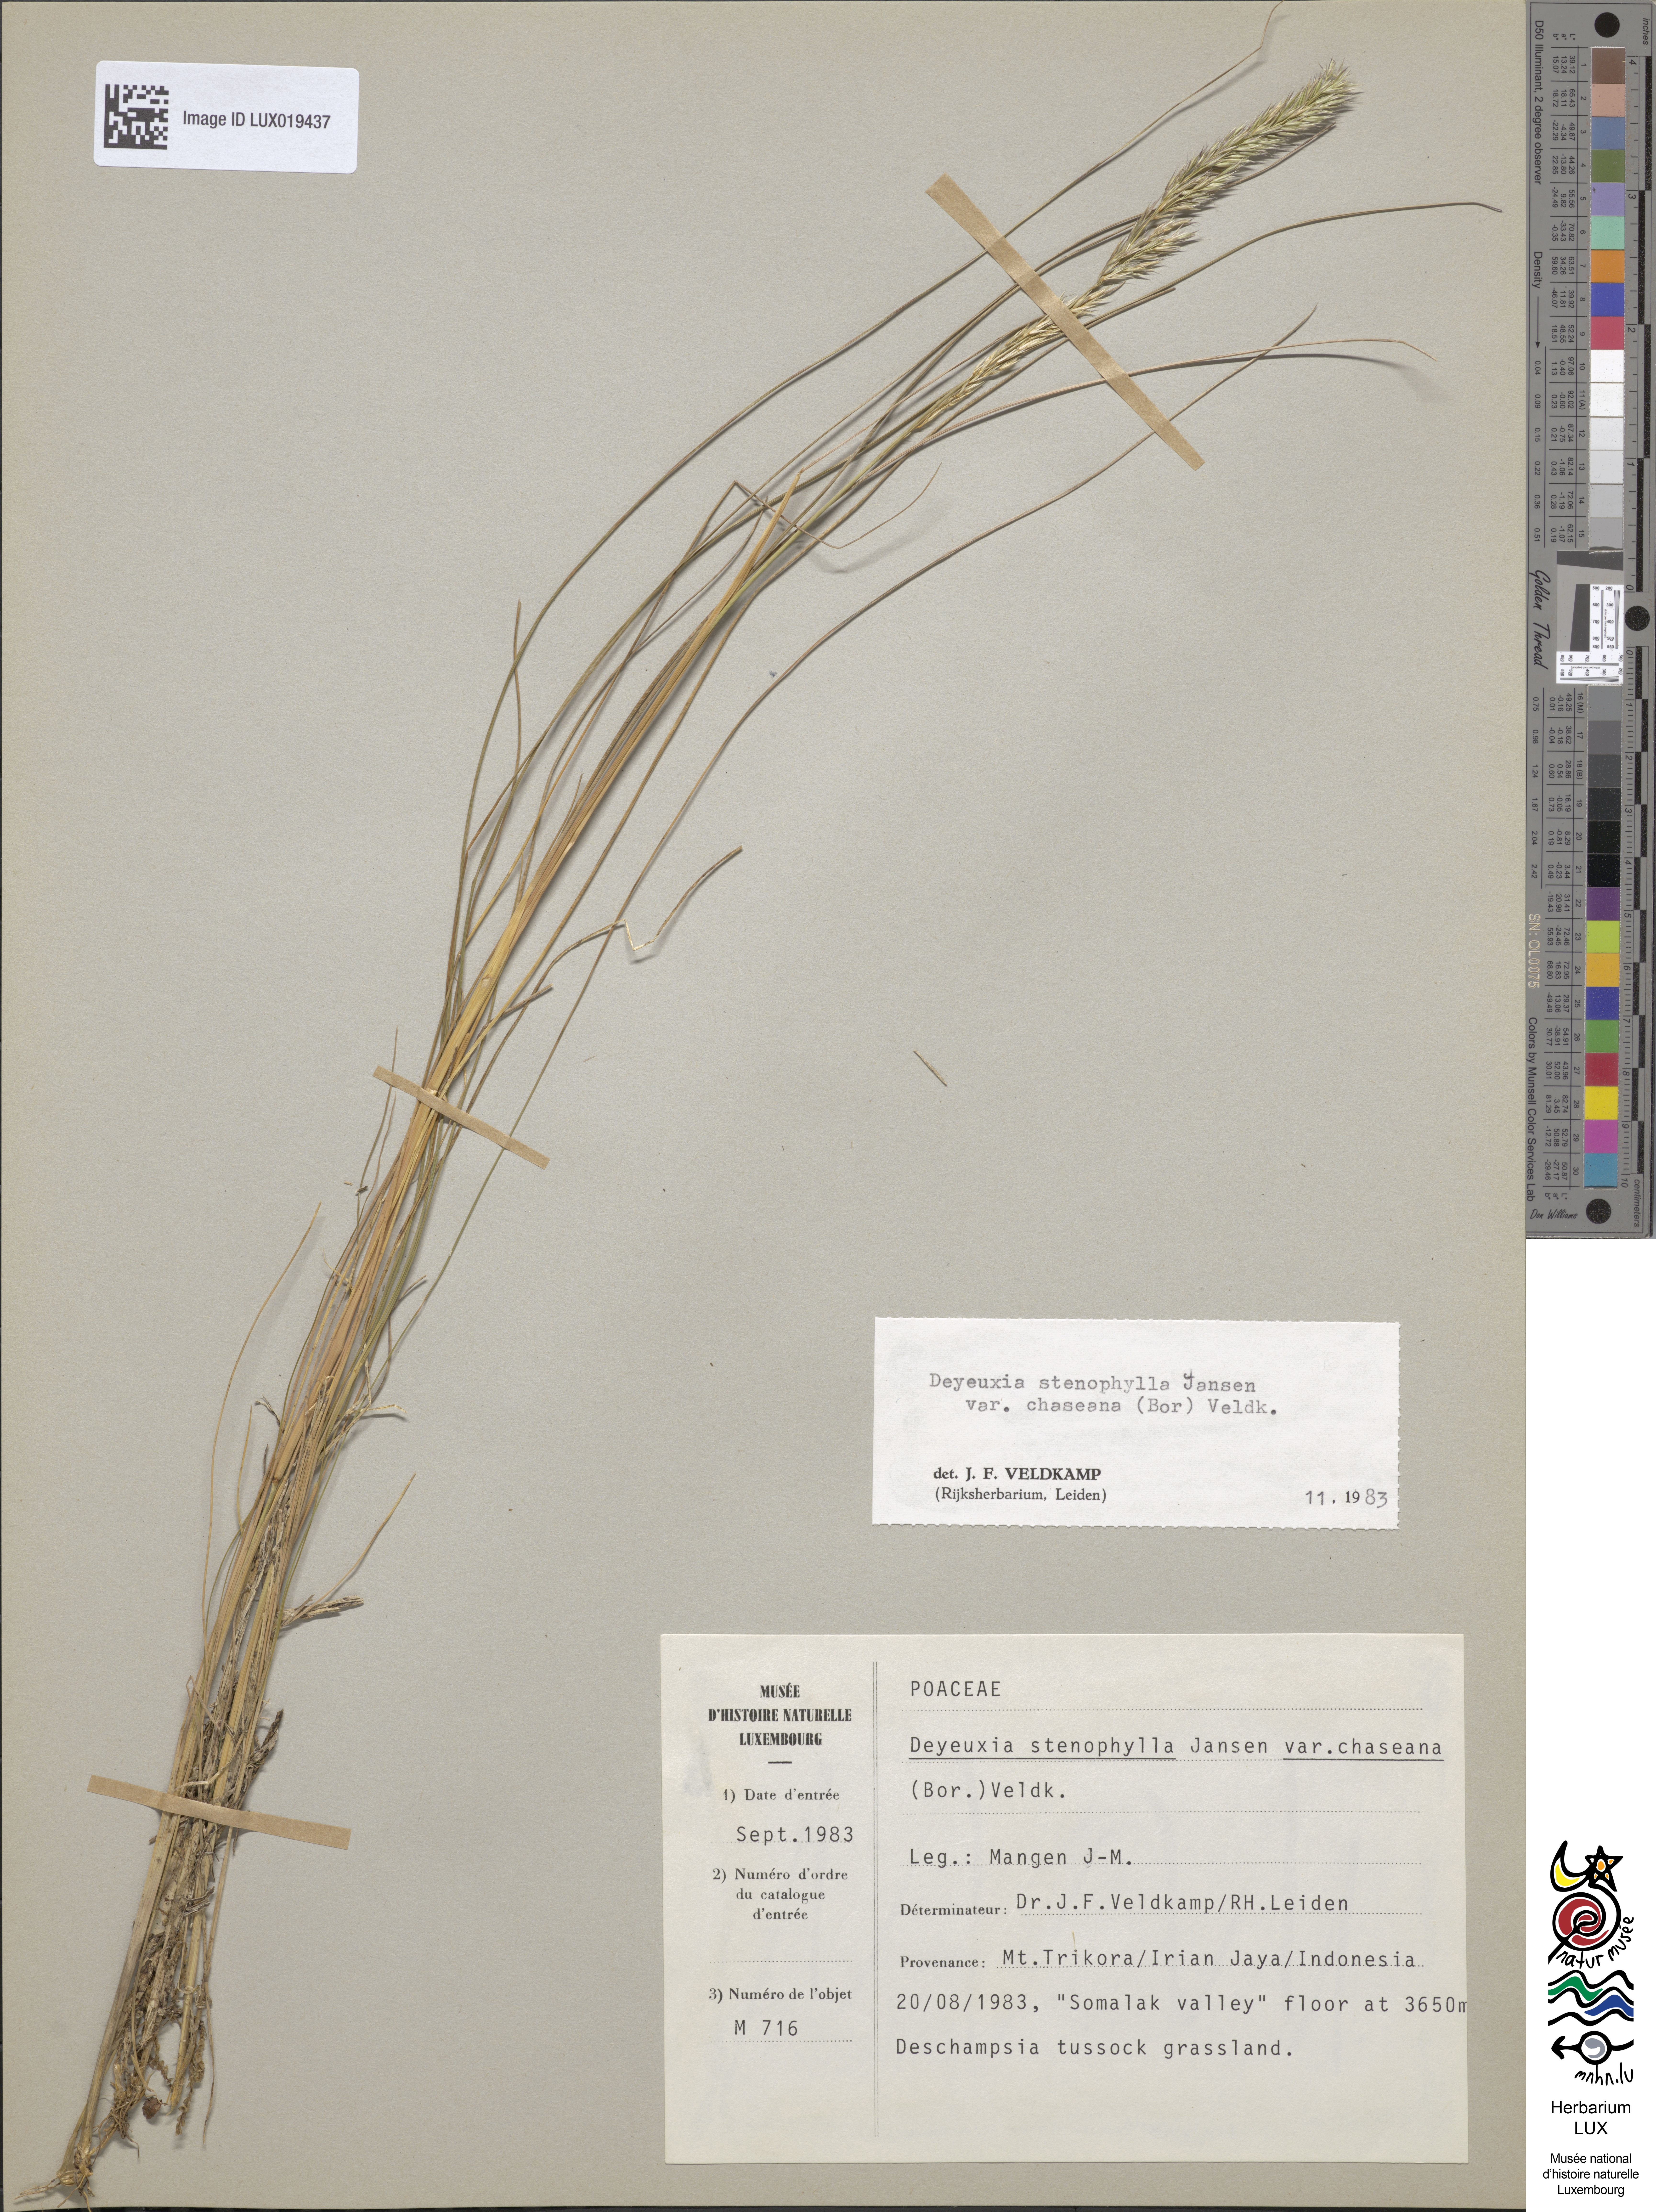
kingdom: Plantae
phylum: Tracheophyta
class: Liliopsida
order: Poales
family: Poaceae
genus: Calamagrostis
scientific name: Calamagrostis filifolia
